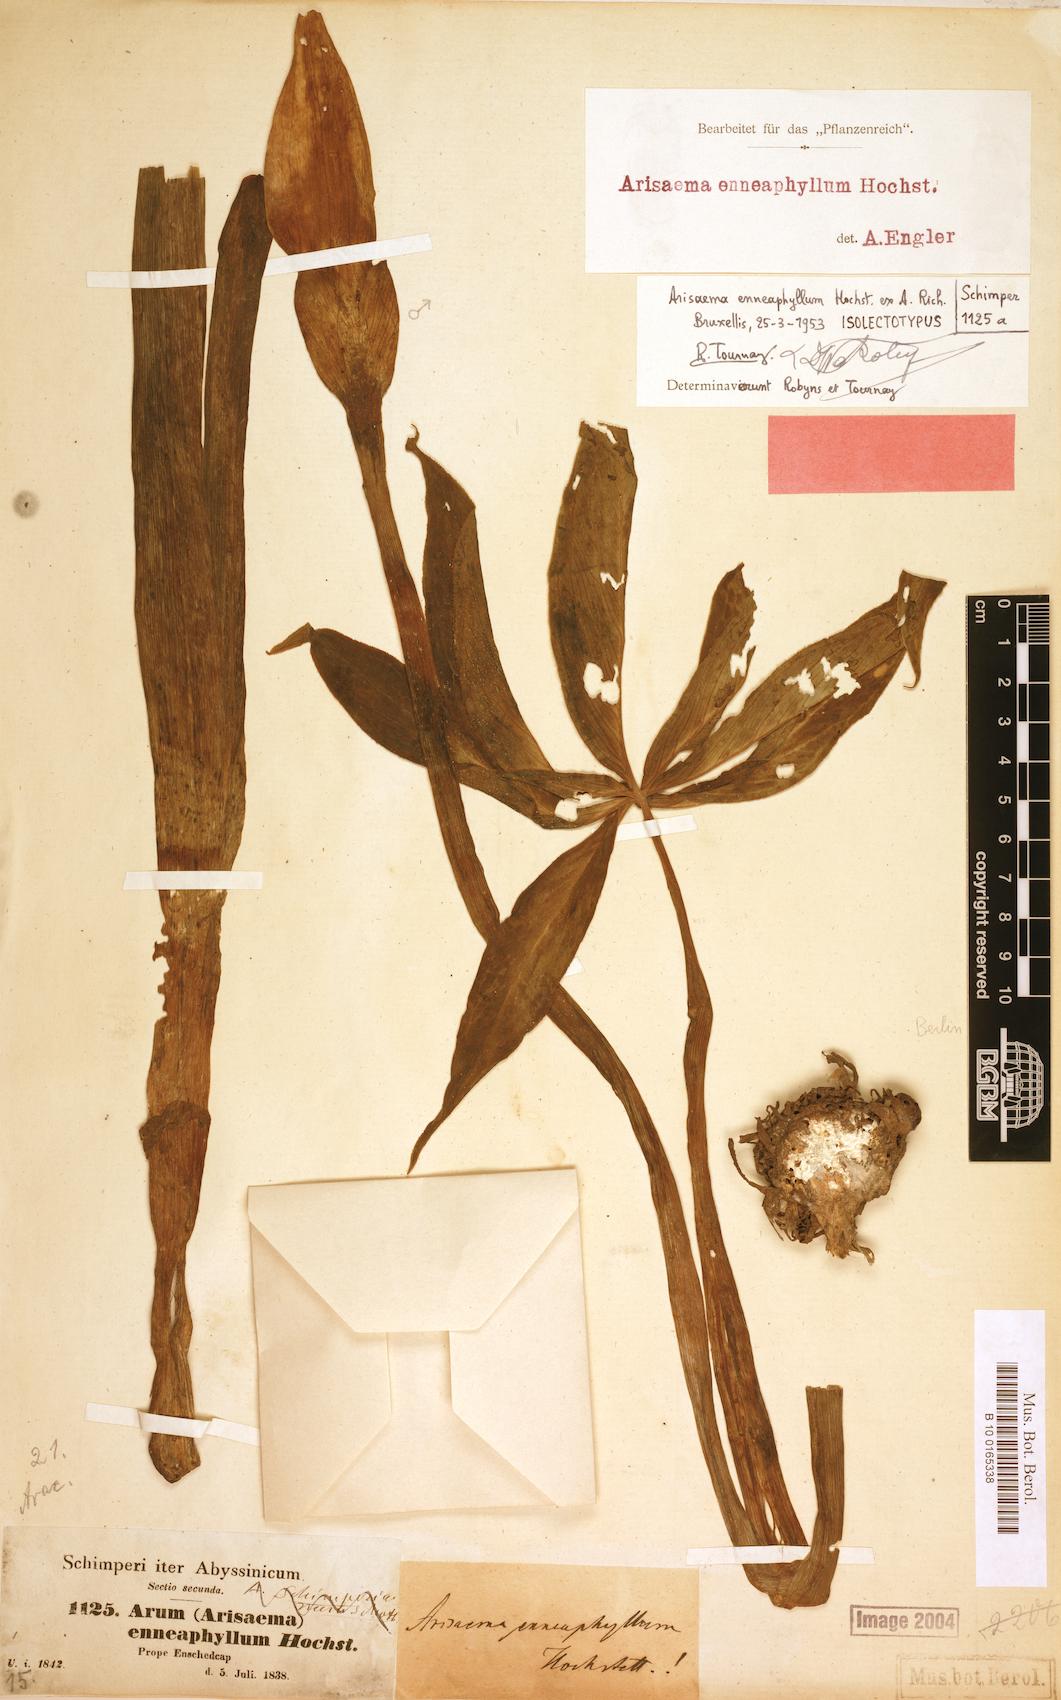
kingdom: Plantae
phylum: Tracheophyta
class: Liliopsida
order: Alismatales
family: Araceae
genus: Arisaema
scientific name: Arisaema enneaphyllum
